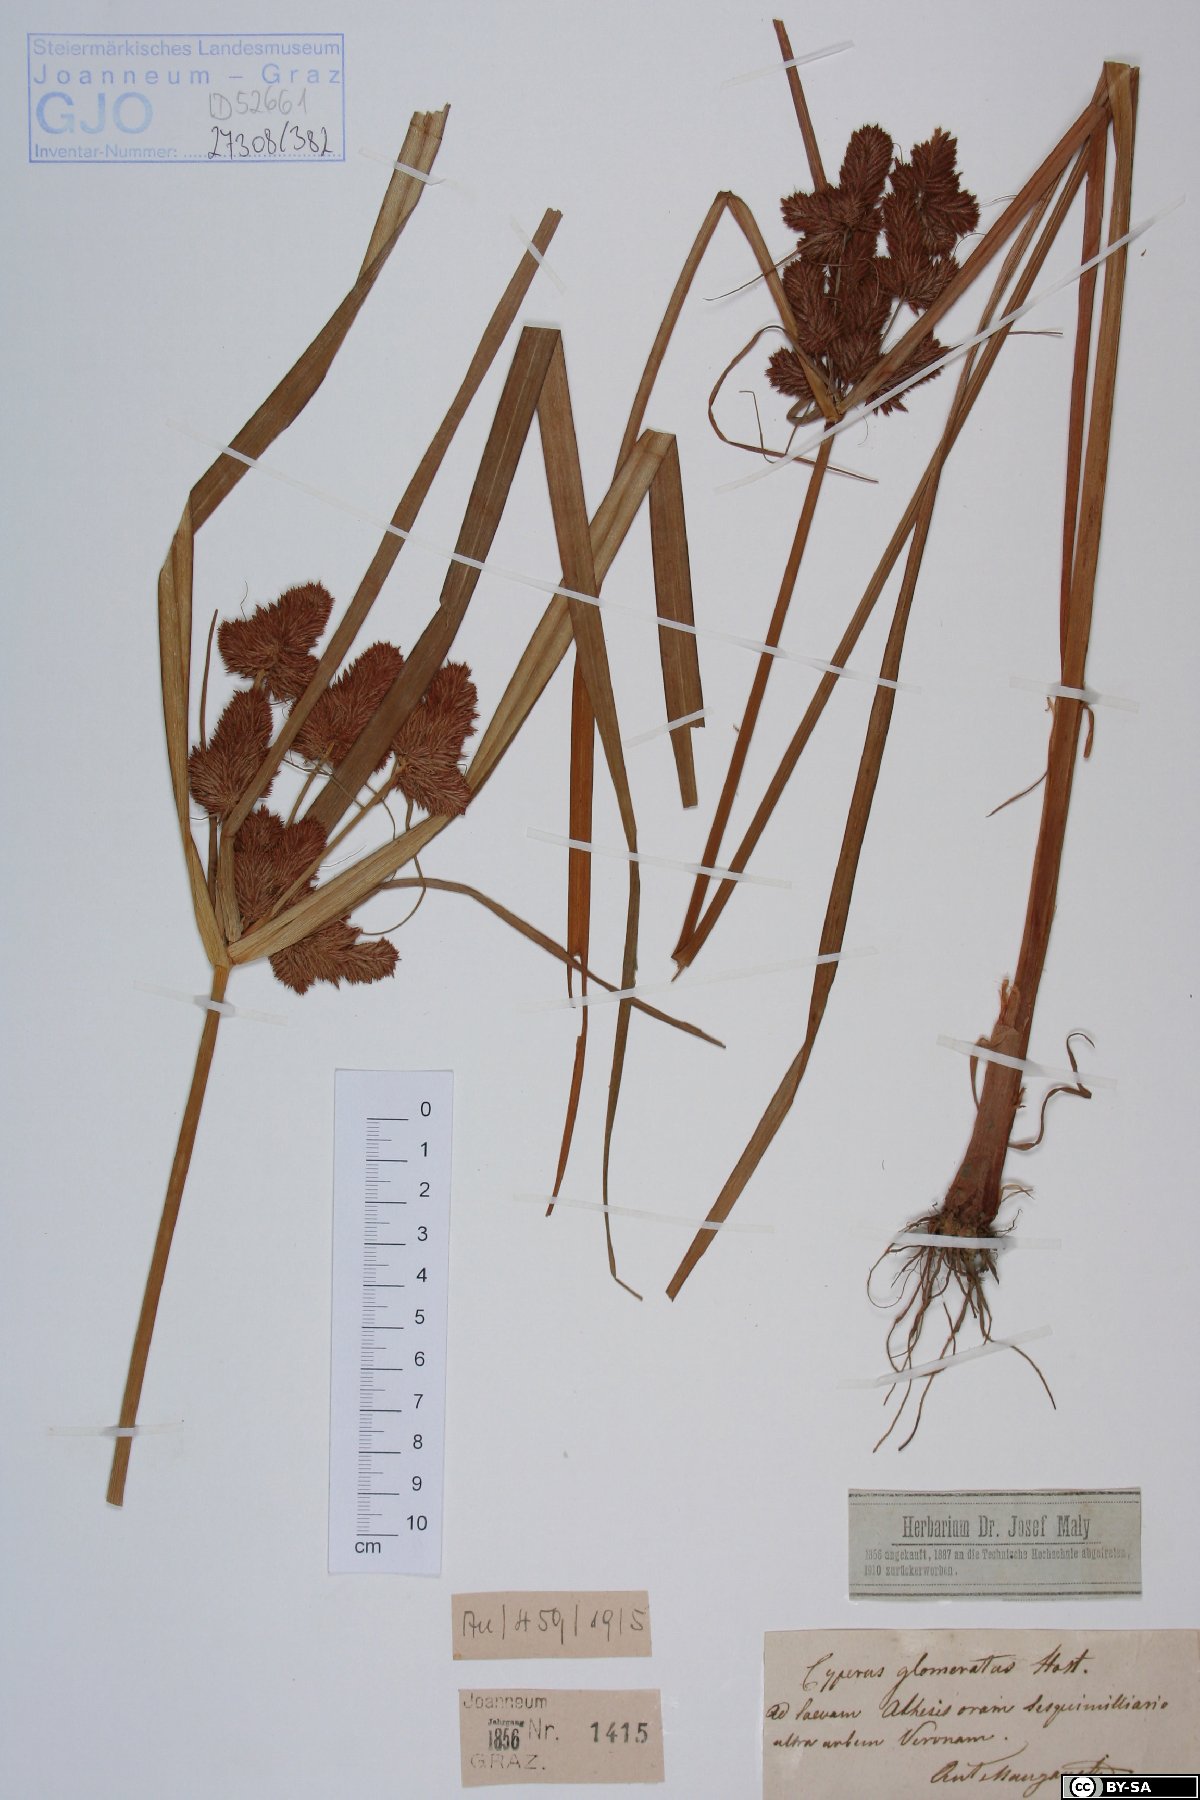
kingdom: Plantae
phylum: Tracheophyta
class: Liliopsida
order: Poales
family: Cyperaceae
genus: Cyperus
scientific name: Cyperus glomeratus
